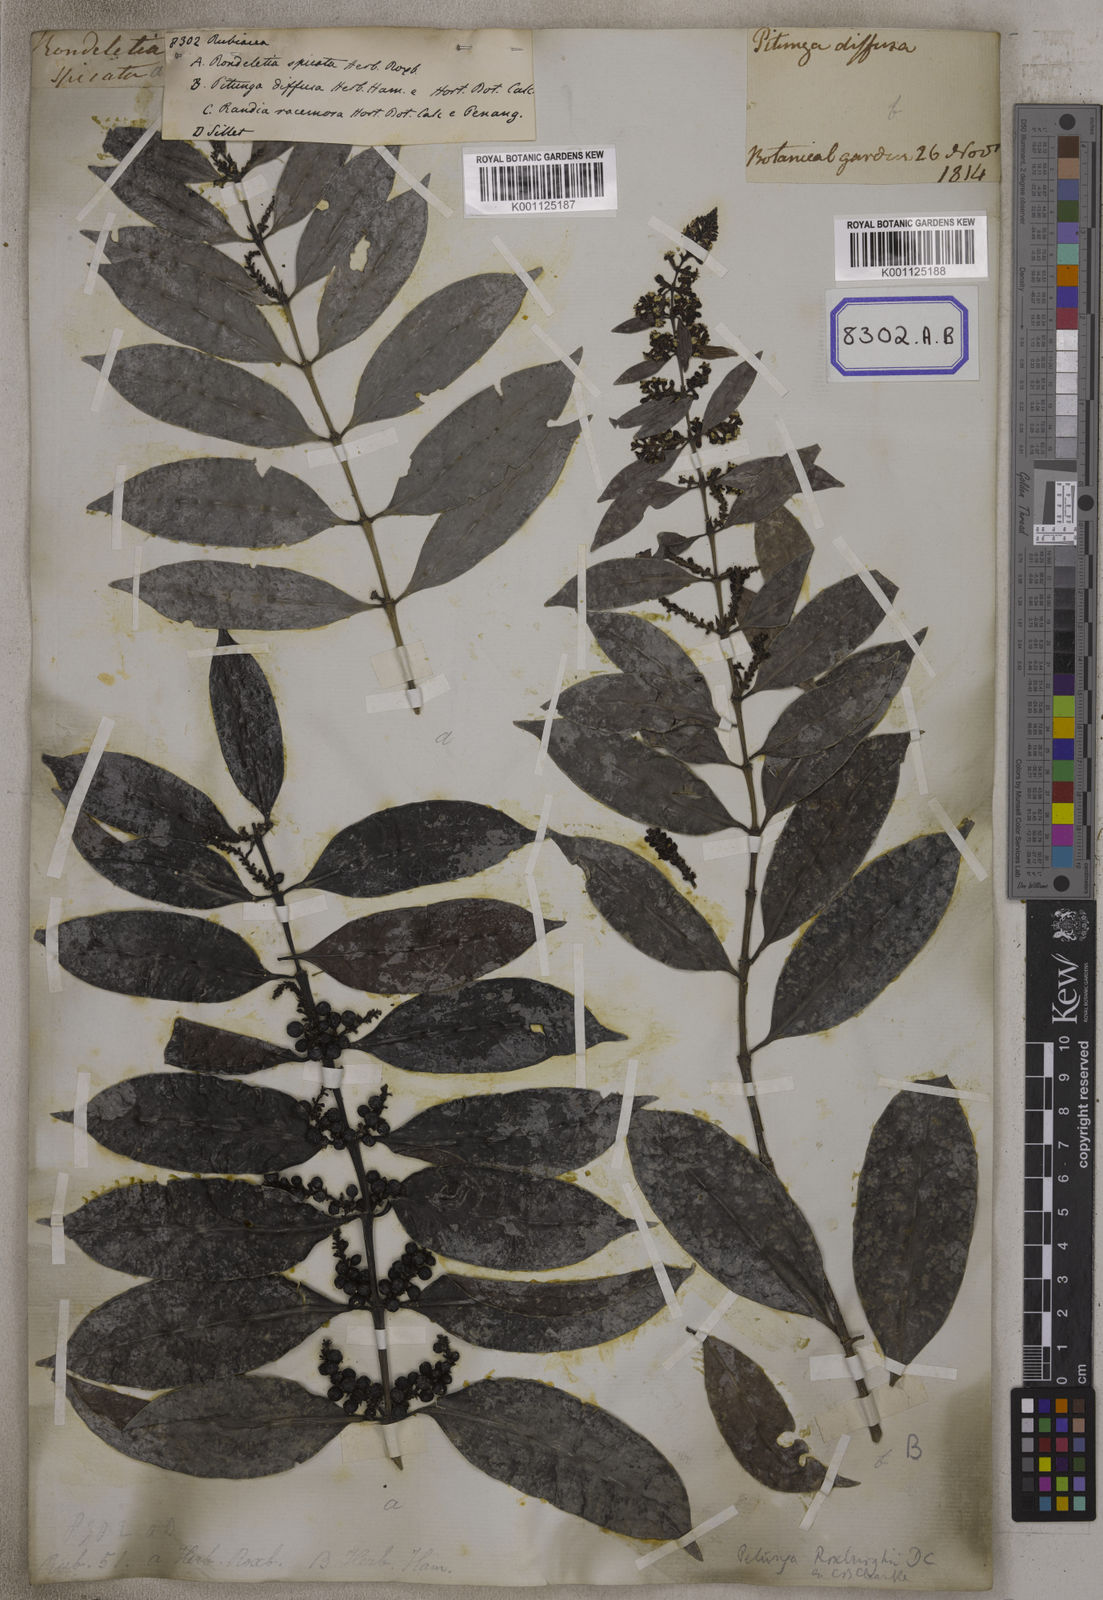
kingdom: Plantae
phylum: Tracheophyta
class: Magnoliopsida
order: Gentianales
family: Rubiaceae
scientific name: Rubiaceae
